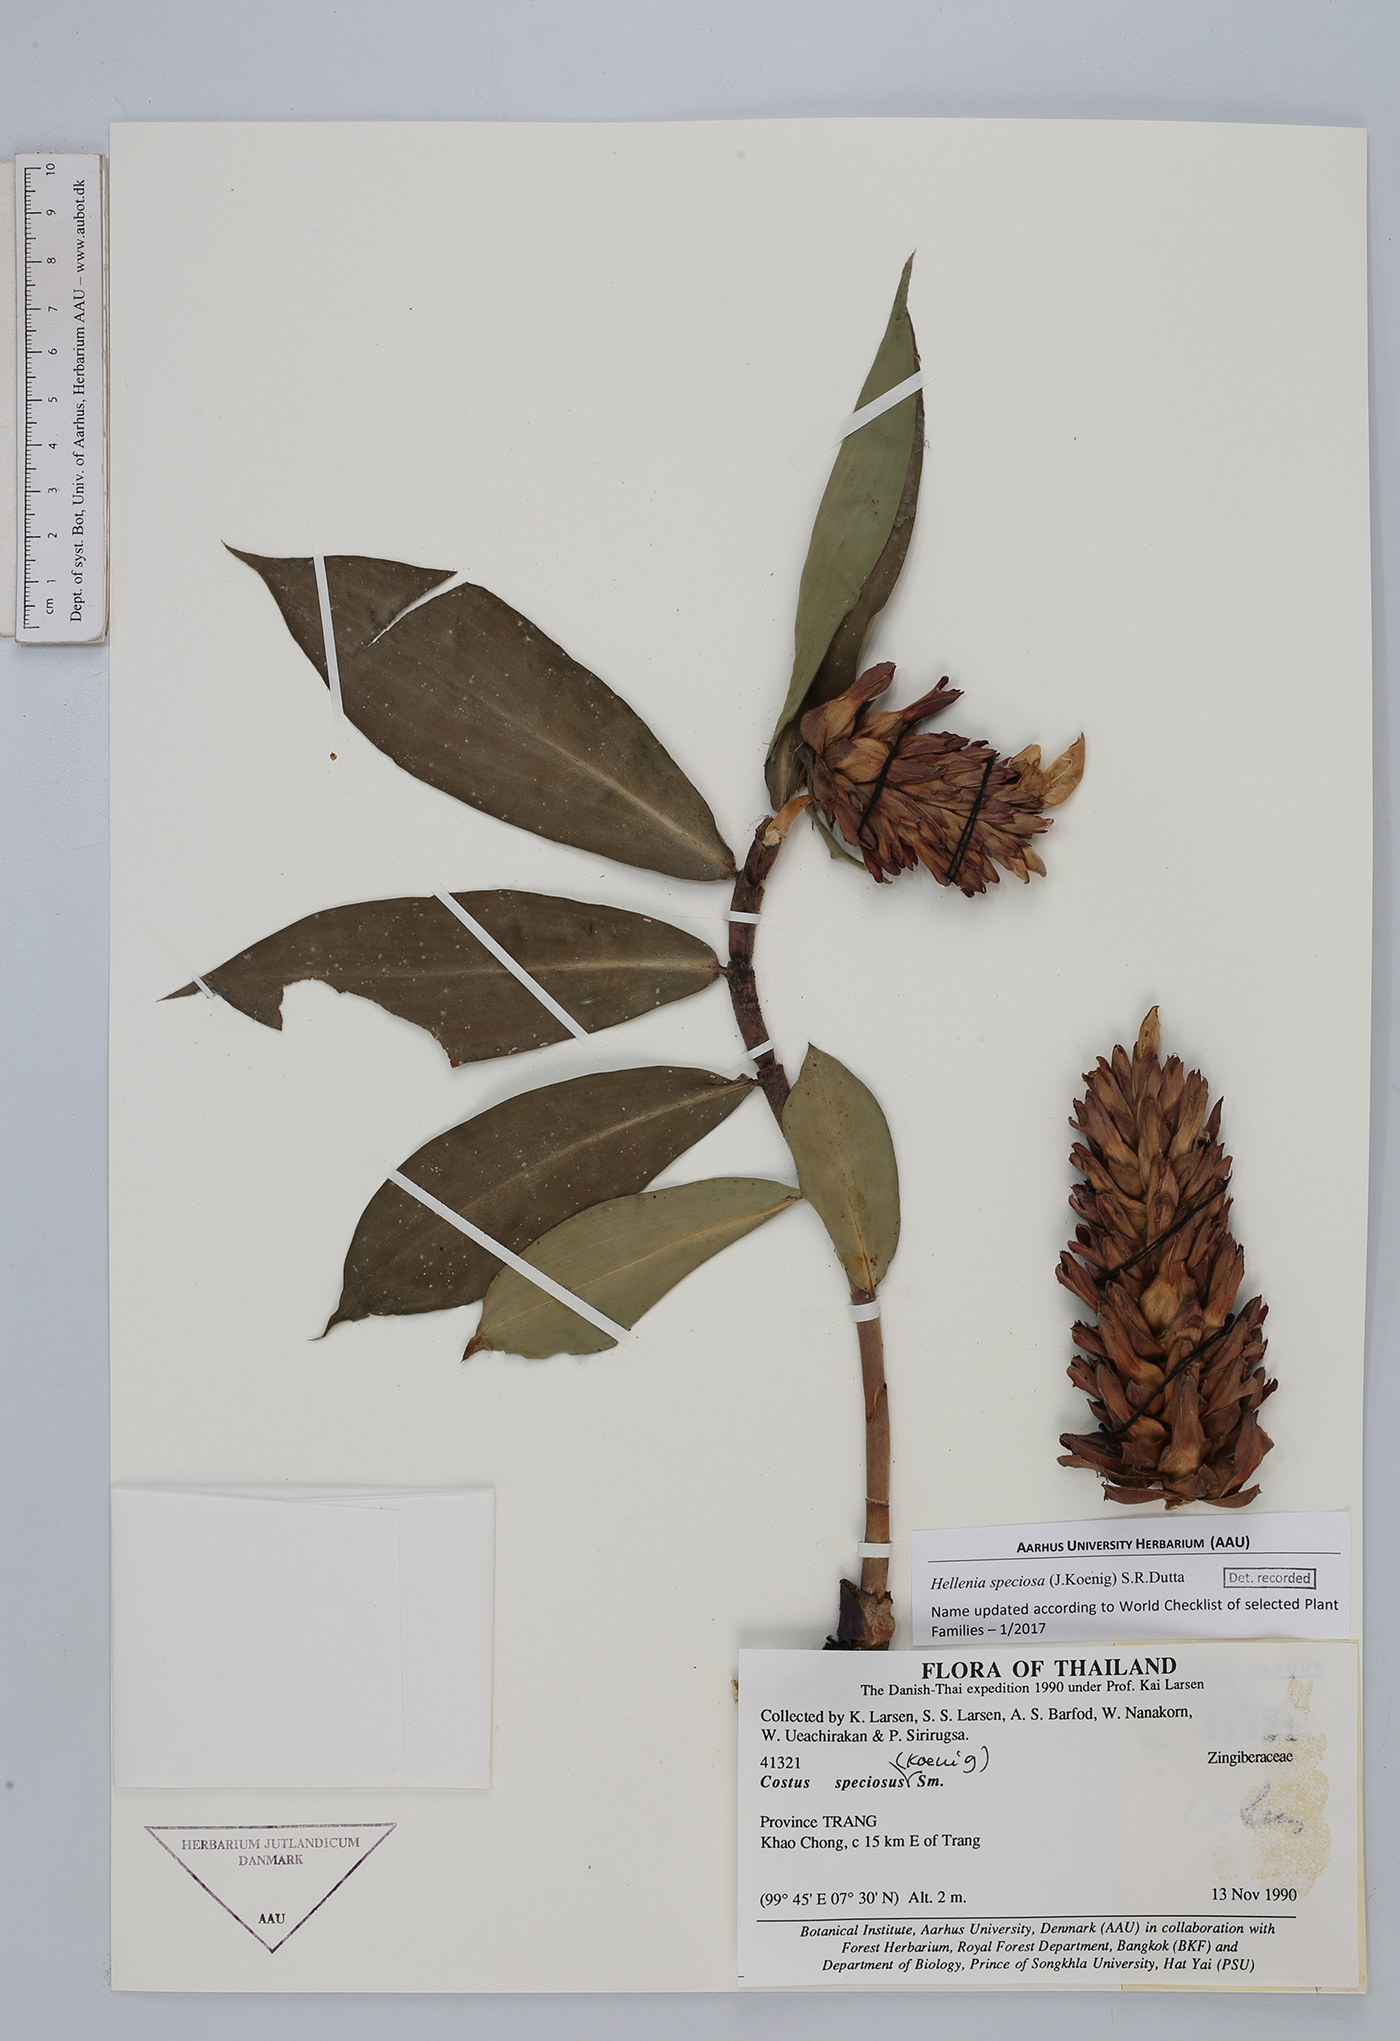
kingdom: Plantae
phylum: Tracheophyta
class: Liliopsida
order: Zingiberales
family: Costaceae
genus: Hellenia
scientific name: Hellenia speciosa
